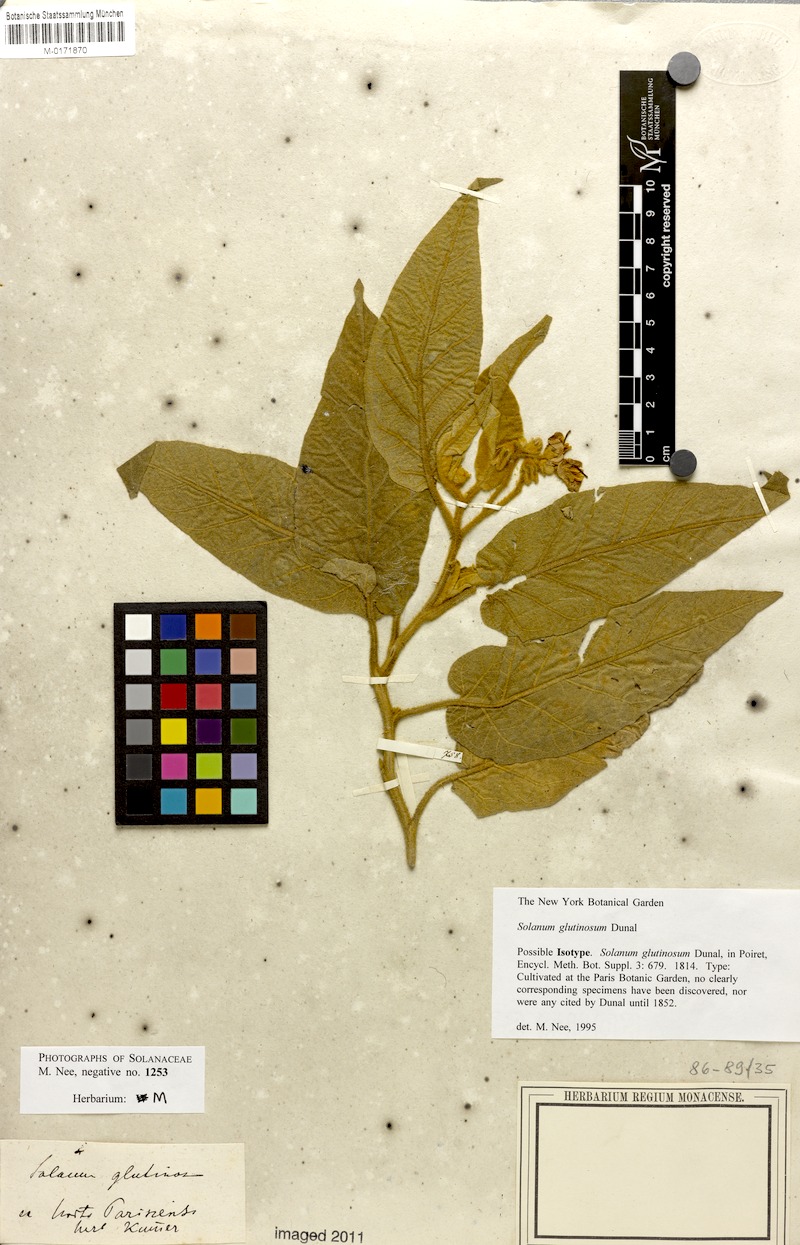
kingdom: Plantae
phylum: Tracheophyta
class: Magnoliopsida
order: Solanales
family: Solanaceae
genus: Solanum
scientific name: Solanum glutinosum
